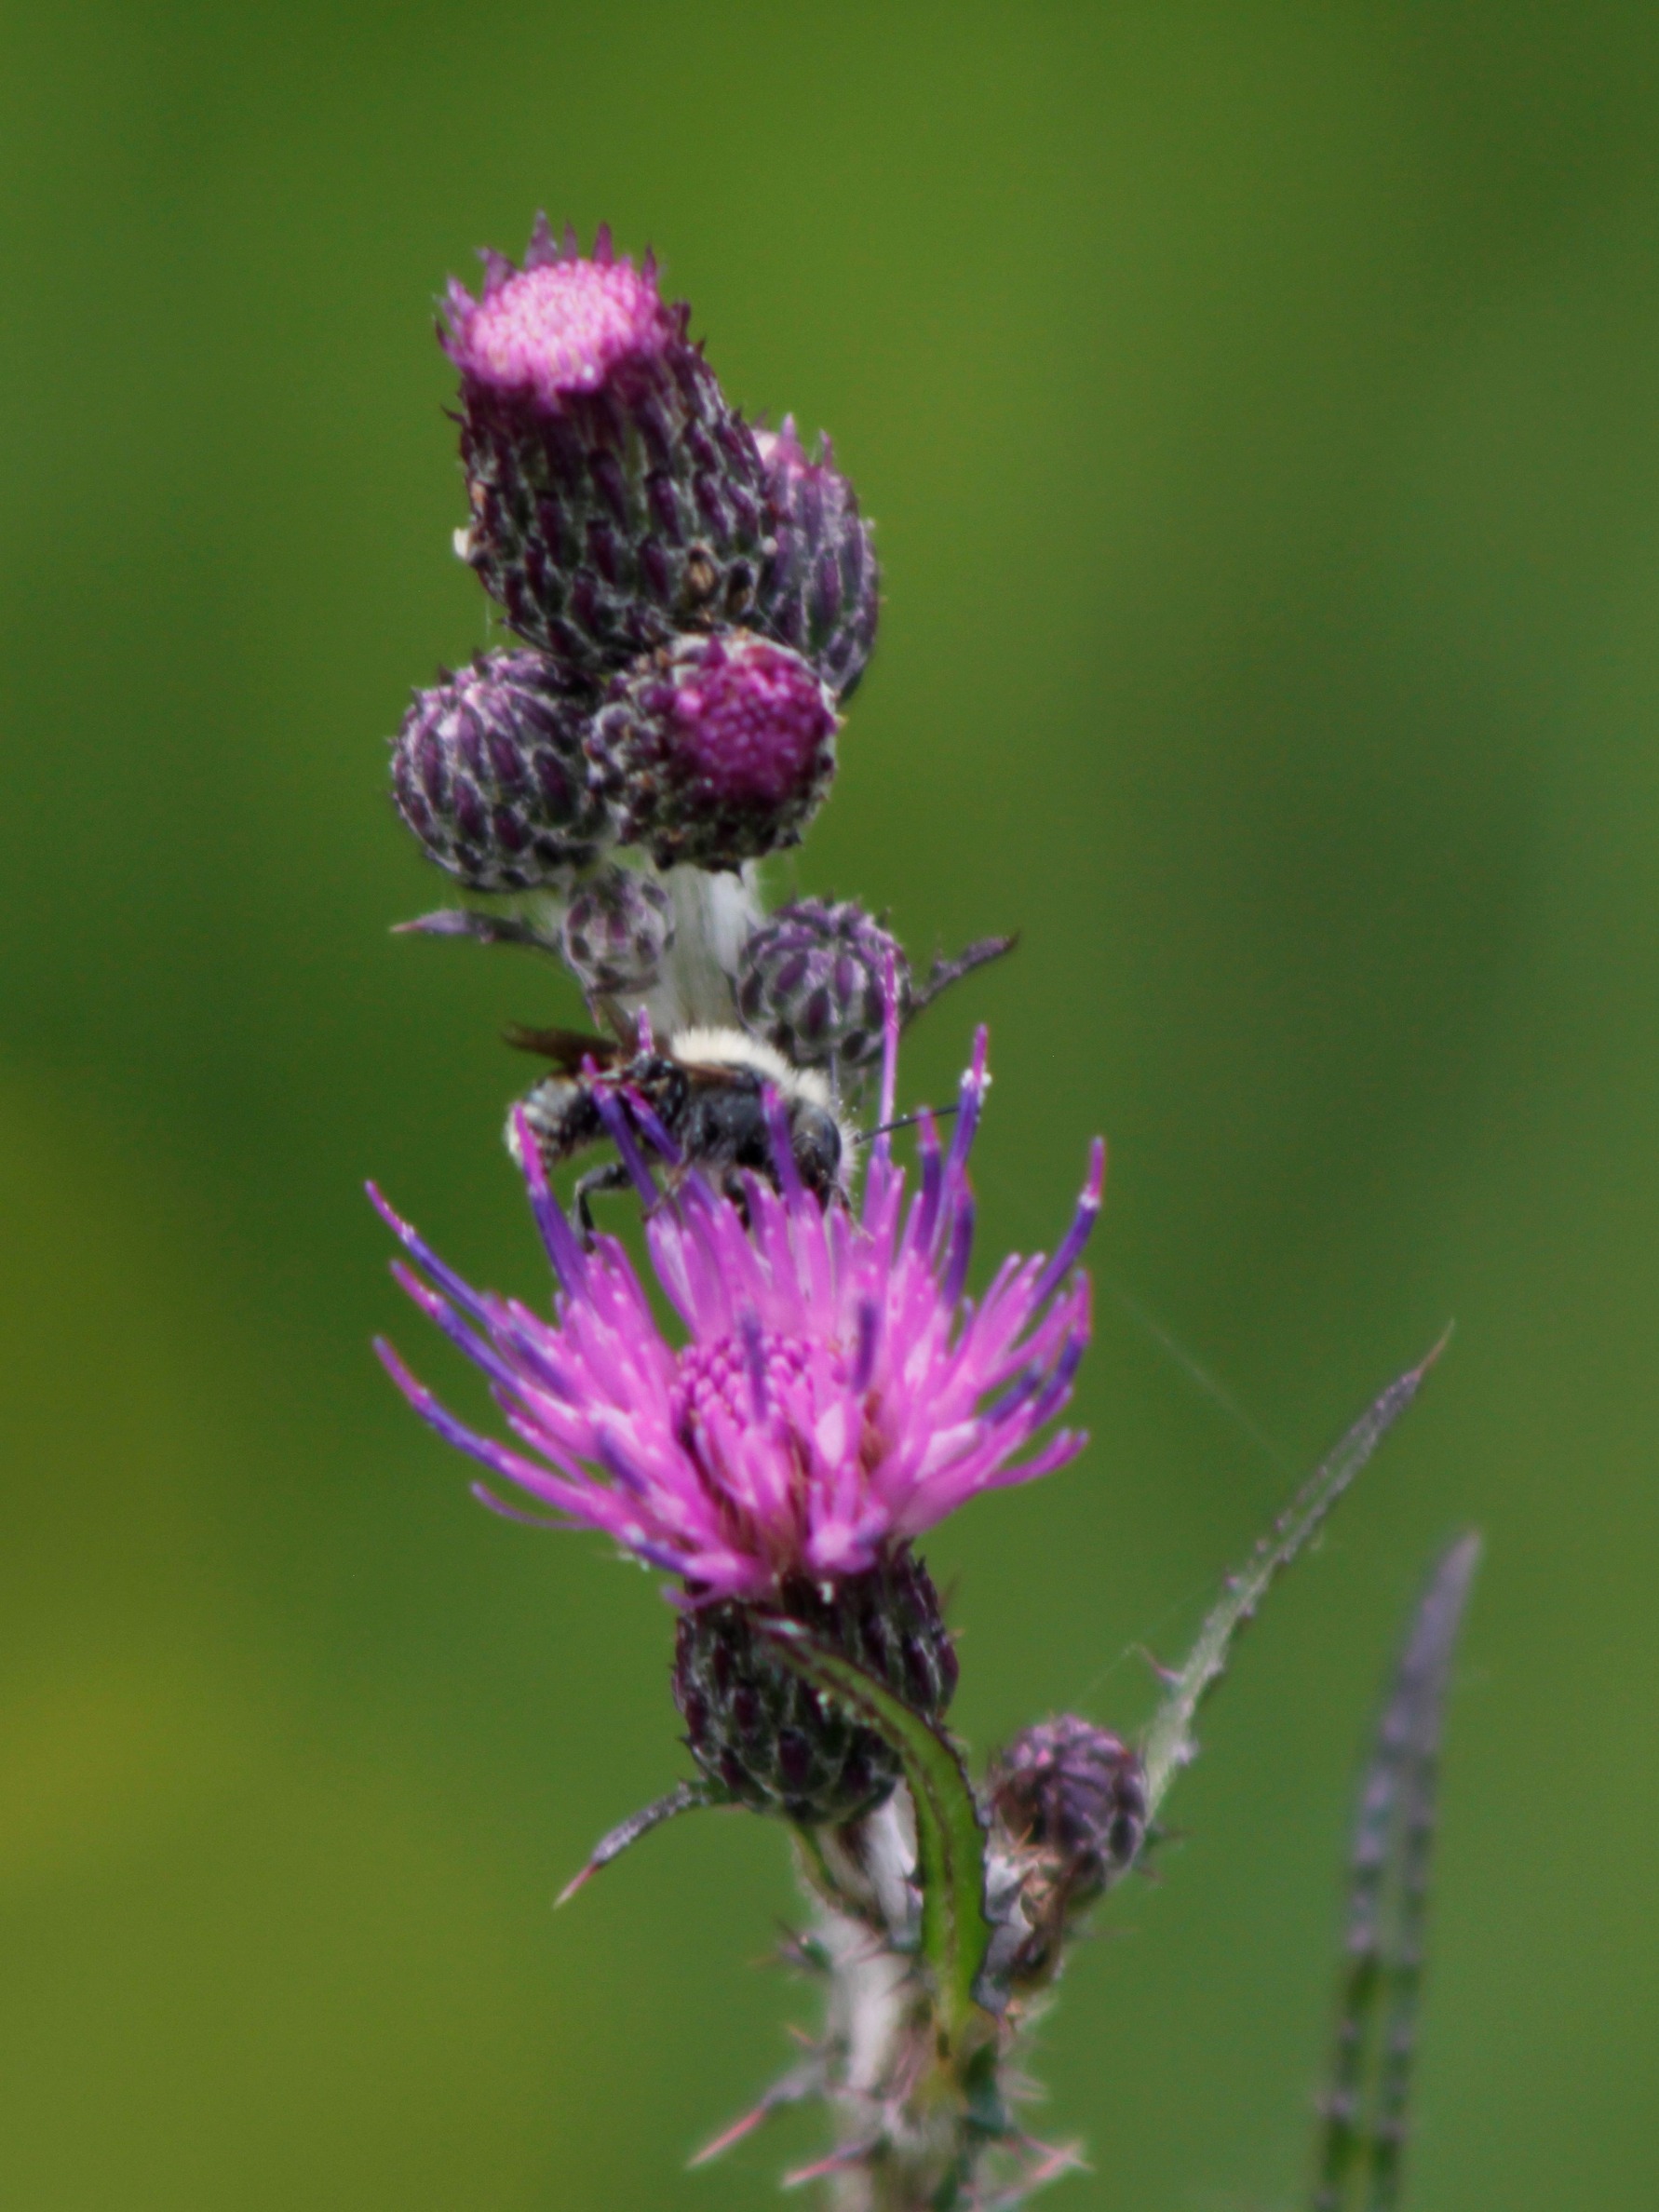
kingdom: Plantae
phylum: Tracheophyta
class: Magnoliopsida
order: Asterales
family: Asteraceae
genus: Cirsium
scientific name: Cirsium palustre
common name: Kær-tidsel
